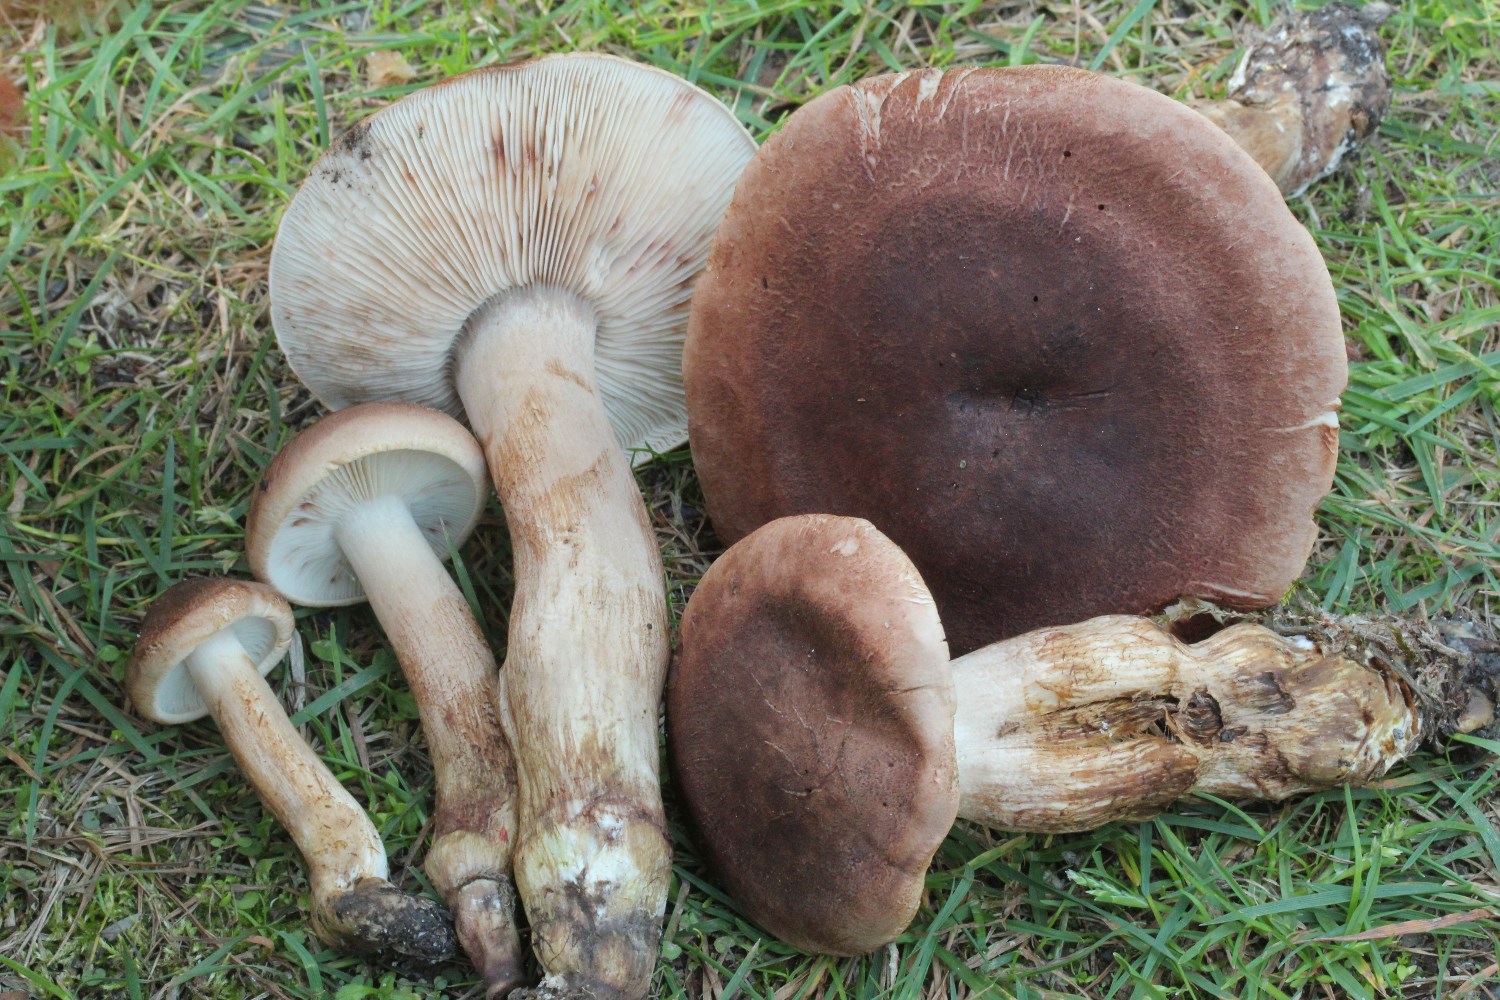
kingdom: Fungi
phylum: Basidiomycota
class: Agaricomycetes
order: Agaricales
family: Tricholomataceae
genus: Tricholoma
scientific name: Tricholoma imbricatum
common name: skællet ridderhat
